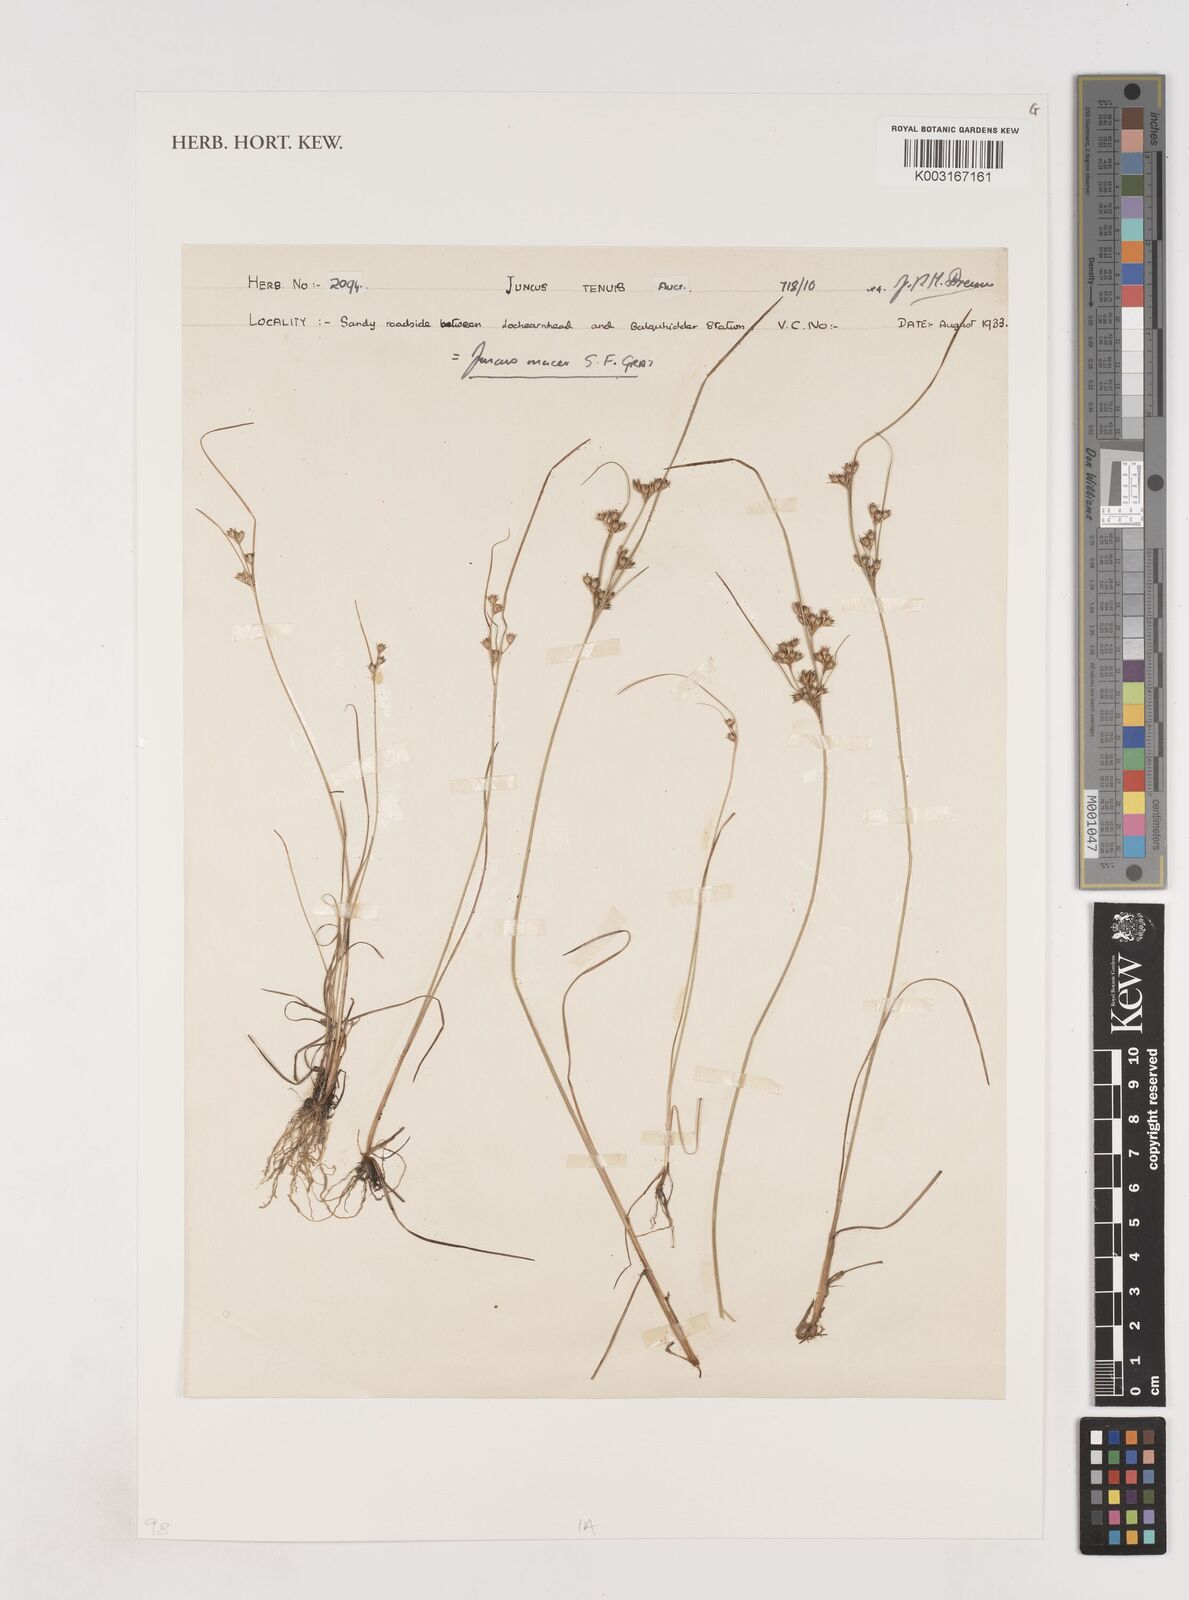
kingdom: Plantae
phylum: Tracheophyta
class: Liliopsida
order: Poales
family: Juncaceae
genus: Juncus
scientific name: Juncus tenuis
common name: Slender rush
